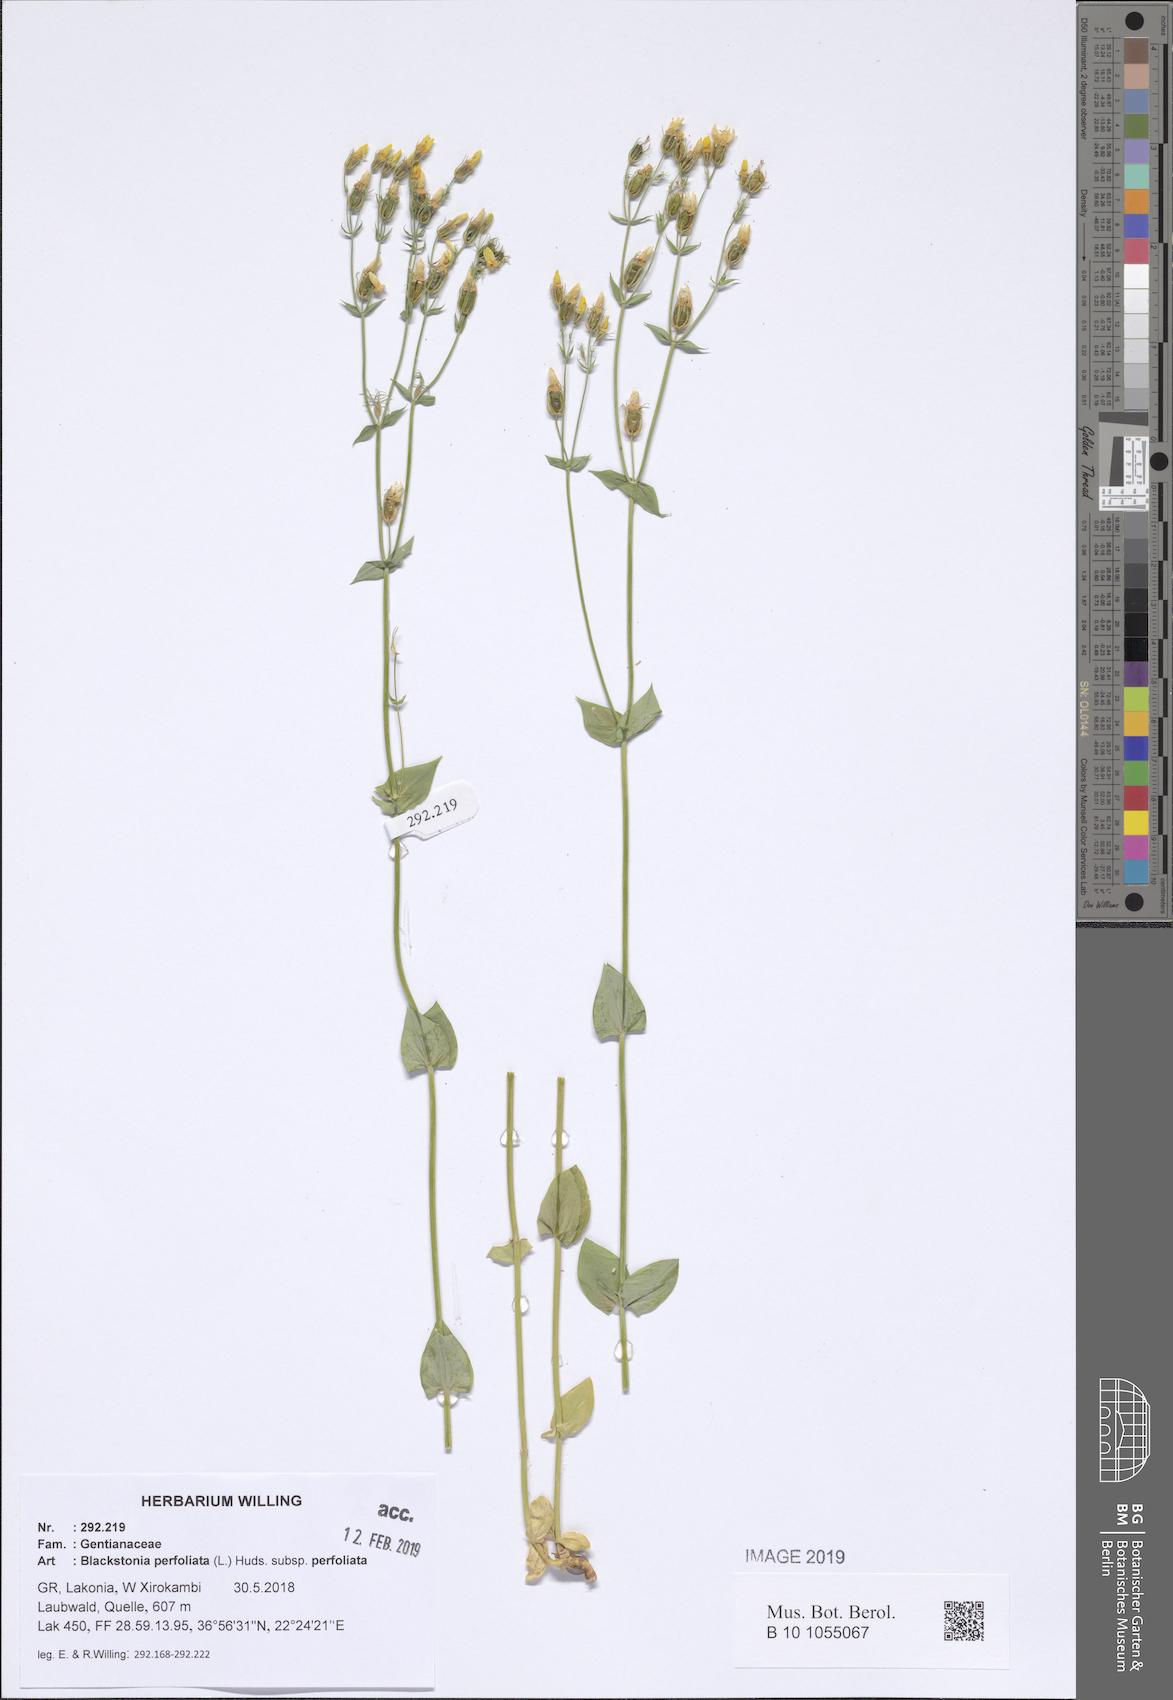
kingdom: Plantae
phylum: Tracheophyta
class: Magnoliopsida
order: Gentianales
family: Gentianaceae
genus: Blackstonia
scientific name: Blackstonia perfoliata
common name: Yellow-wort
